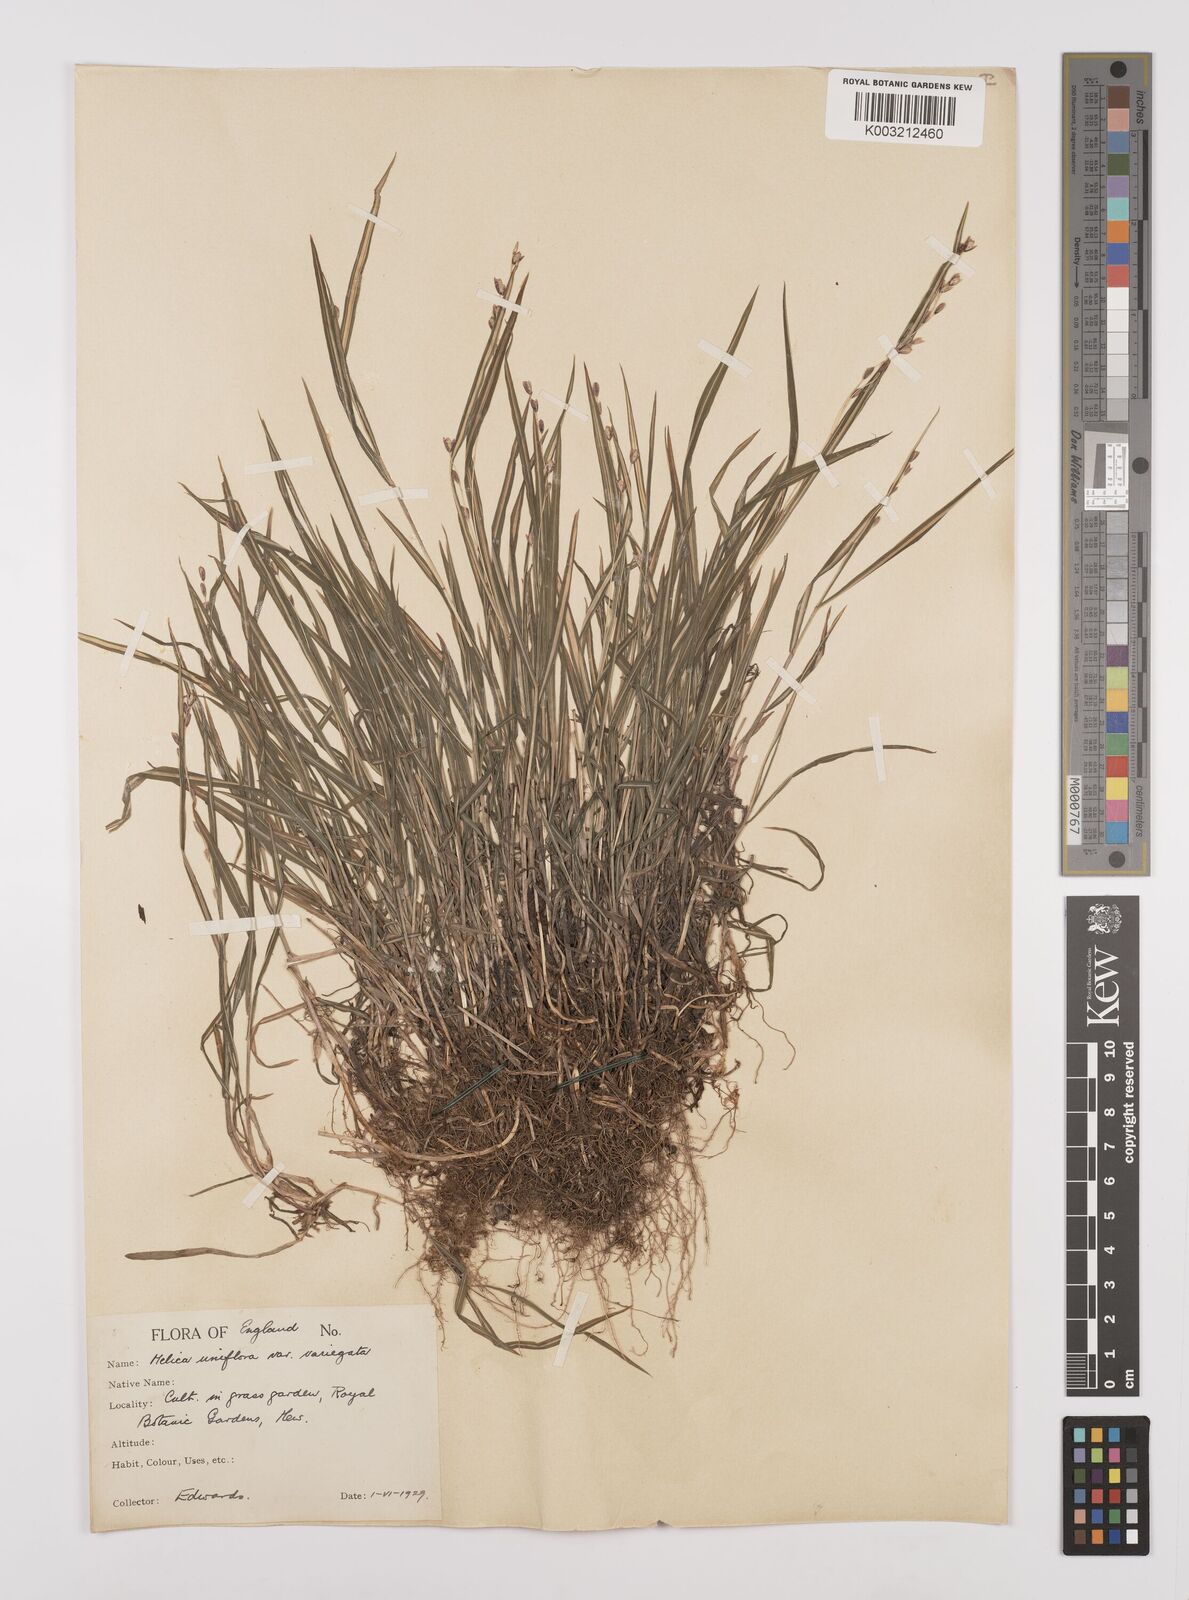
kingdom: Plantae
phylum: Tracheophyta
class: Liliopsida
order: Poales
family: Poaceae
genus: Melica
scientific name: Melica uniflora
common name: Wood melick
